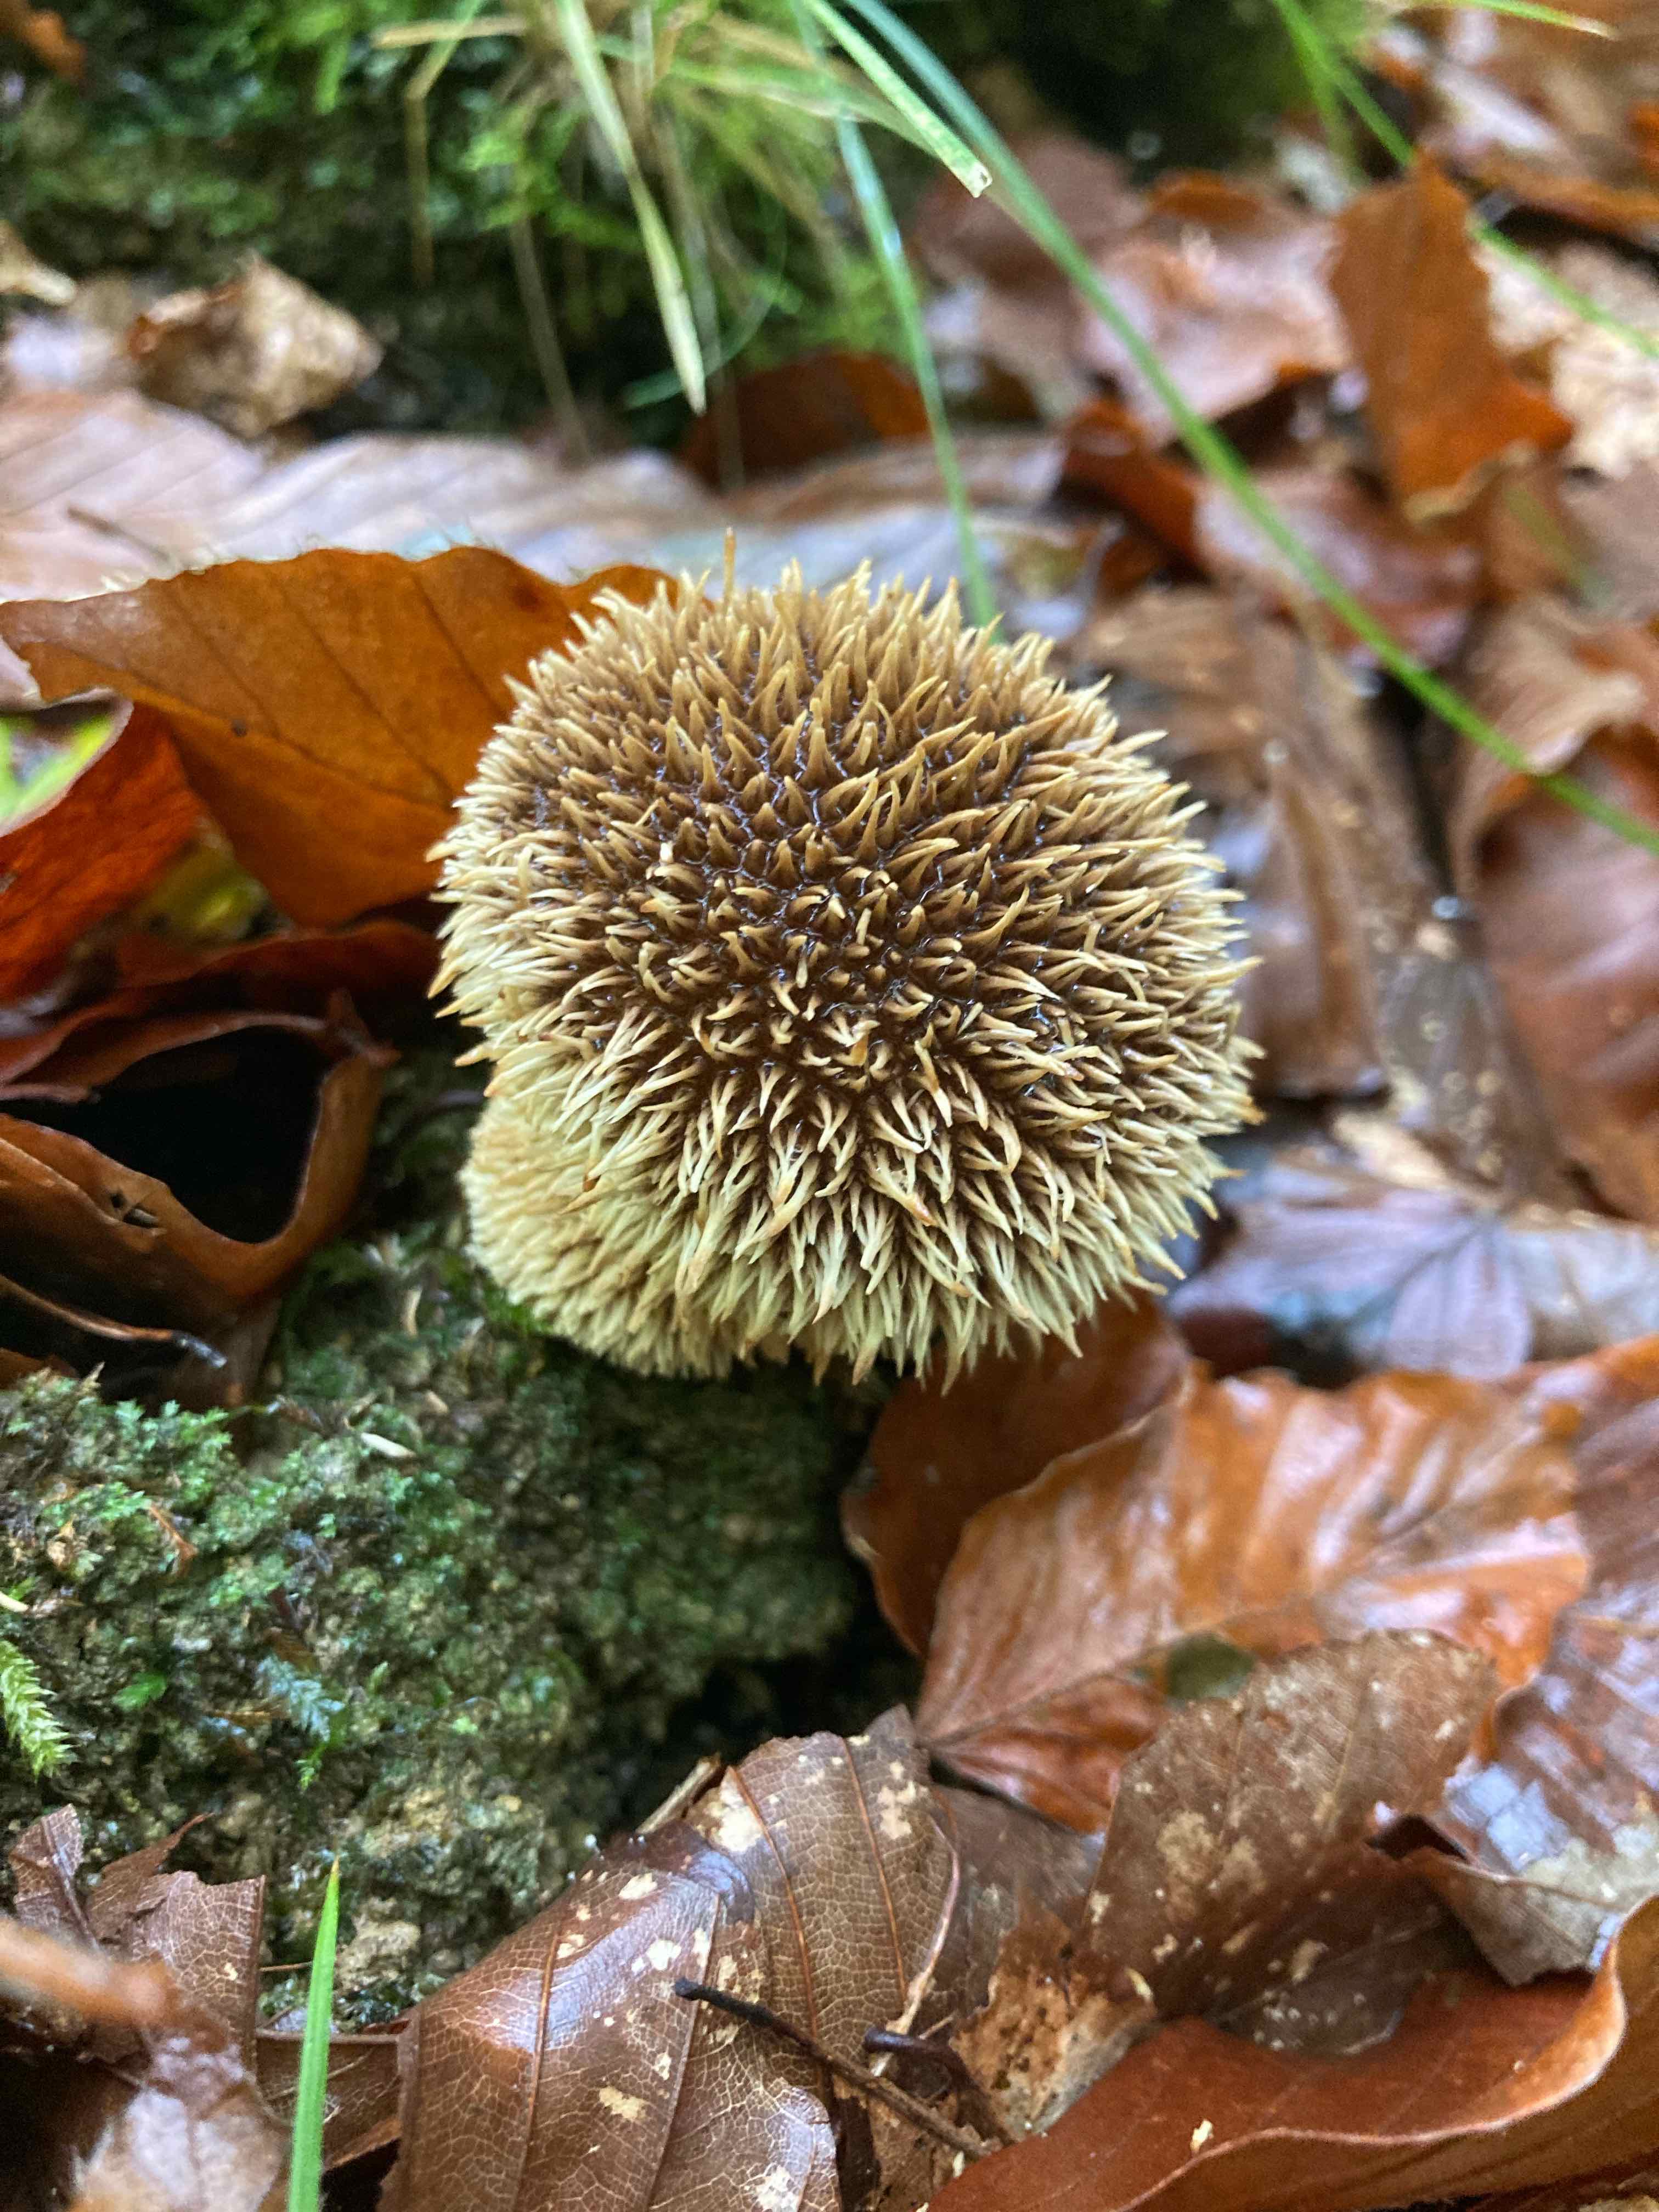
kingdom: Fungi
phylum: Basidiomycota
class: Agaricomycetes
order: Agaricales
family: Lycoperdaceae
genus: Lycoperdon
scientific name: Lycoperdon echinatum
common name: pindsvine-støvbold
